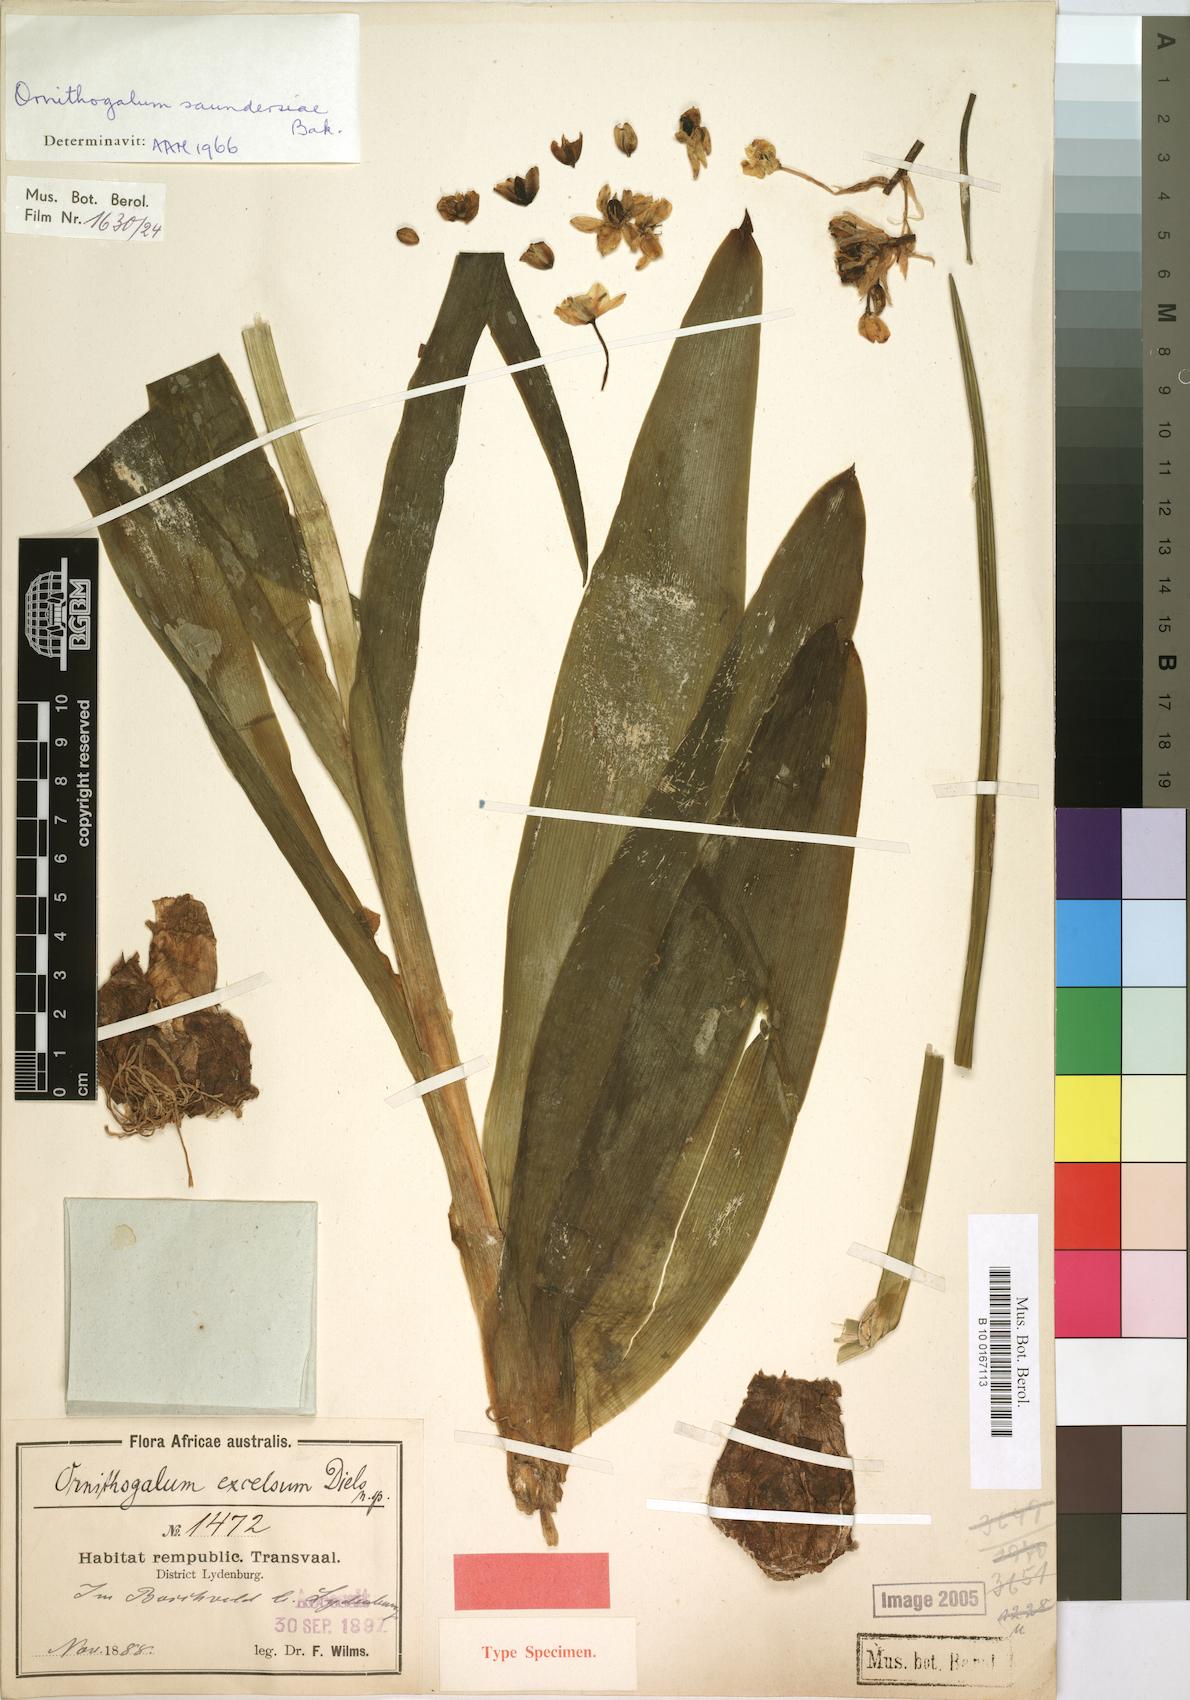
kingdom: Plantae
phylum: Tracheophyta
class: Liliopsida
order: Asparagales
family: Asparagaceae
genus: Ornithogalum
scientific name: Ornithogalum saundersiae
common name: Giant chincherinchee
